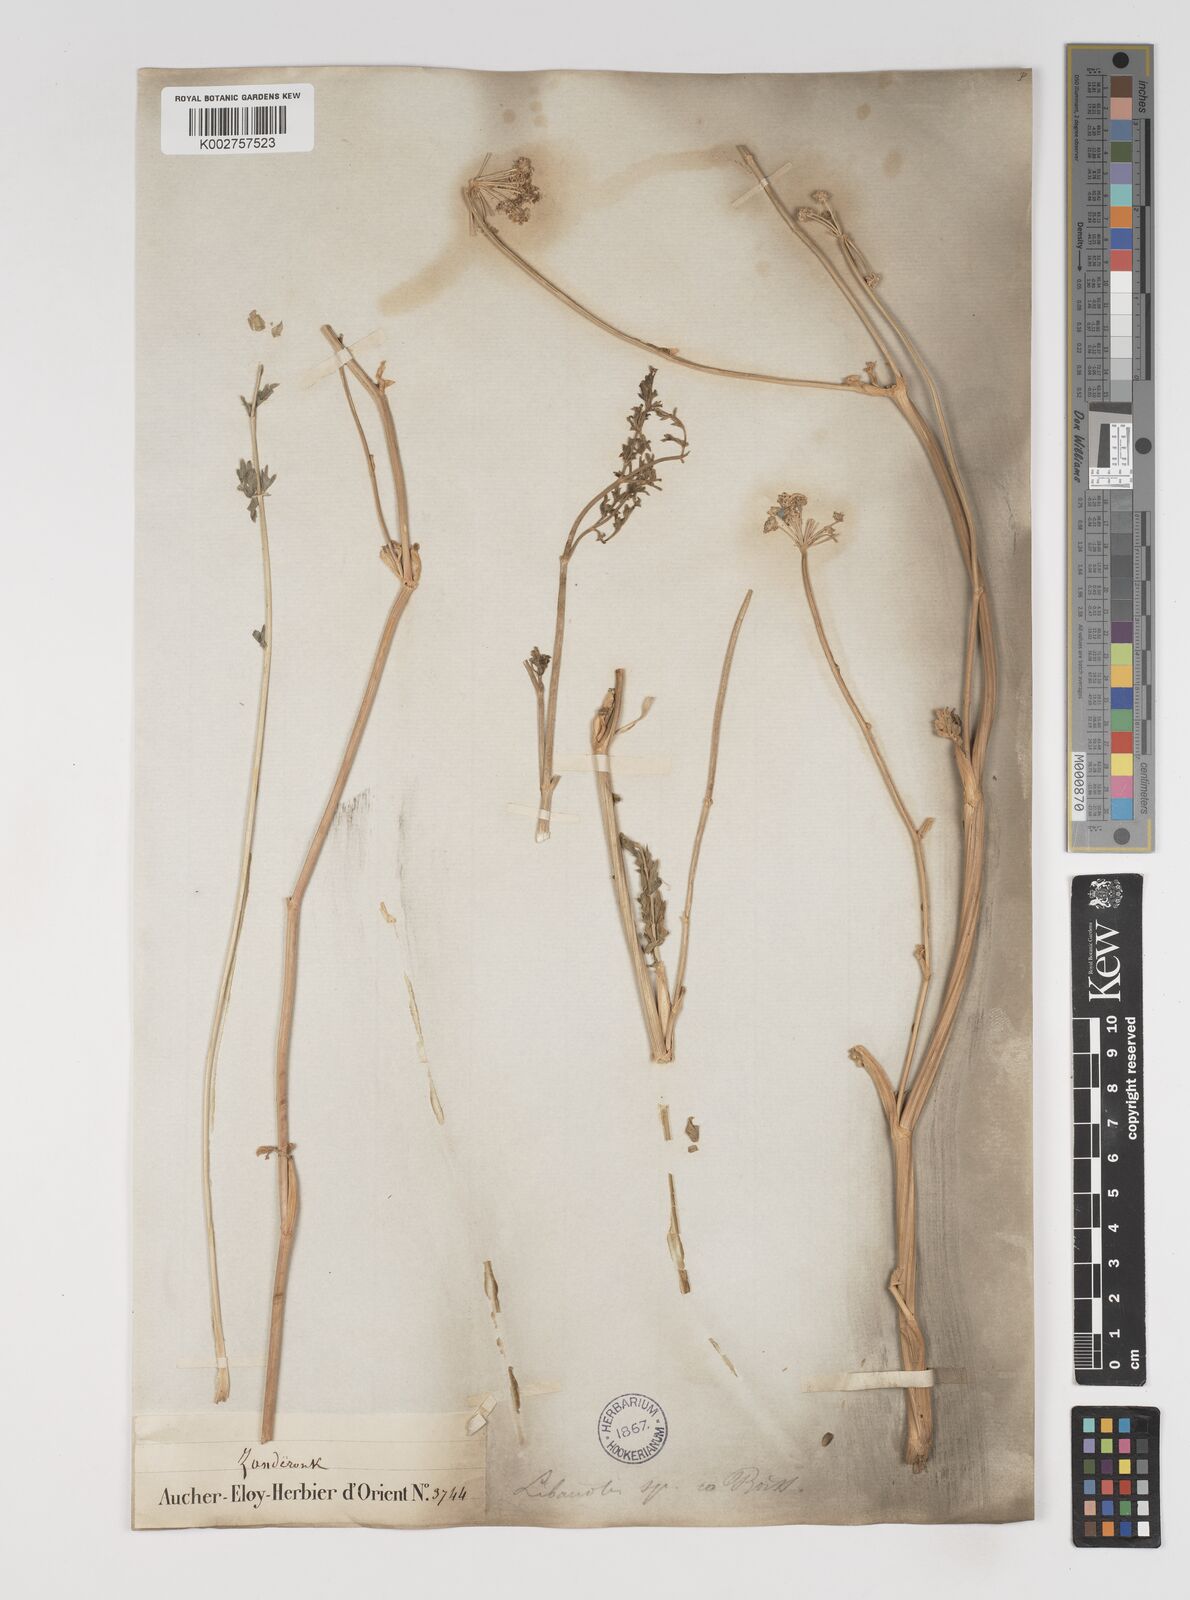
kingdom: Plantae
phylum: Tracheophyta
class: Magnoliopsida
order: Apiales
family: Apiaceae
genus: Seseli
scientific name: Seseli
